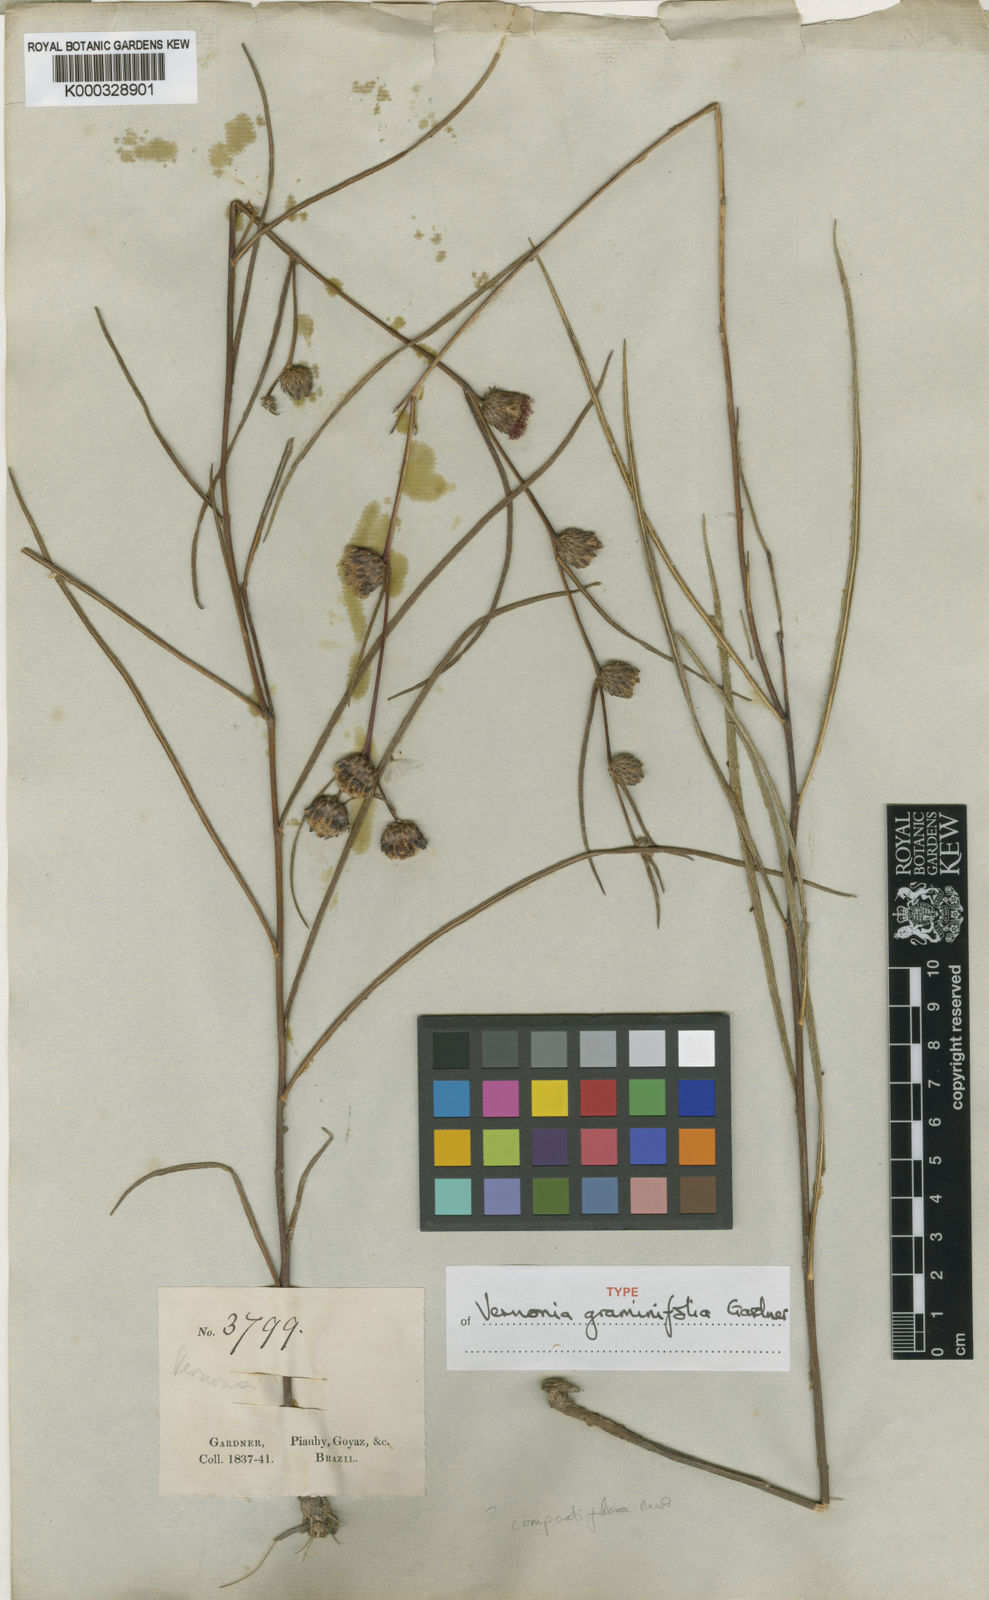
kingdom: Plantae
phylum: Tracheophyta
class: Magnoliopsida
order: Asterales
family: Asteraceae
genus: Lessingianthus
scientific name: Lessingianthus graminifolius
